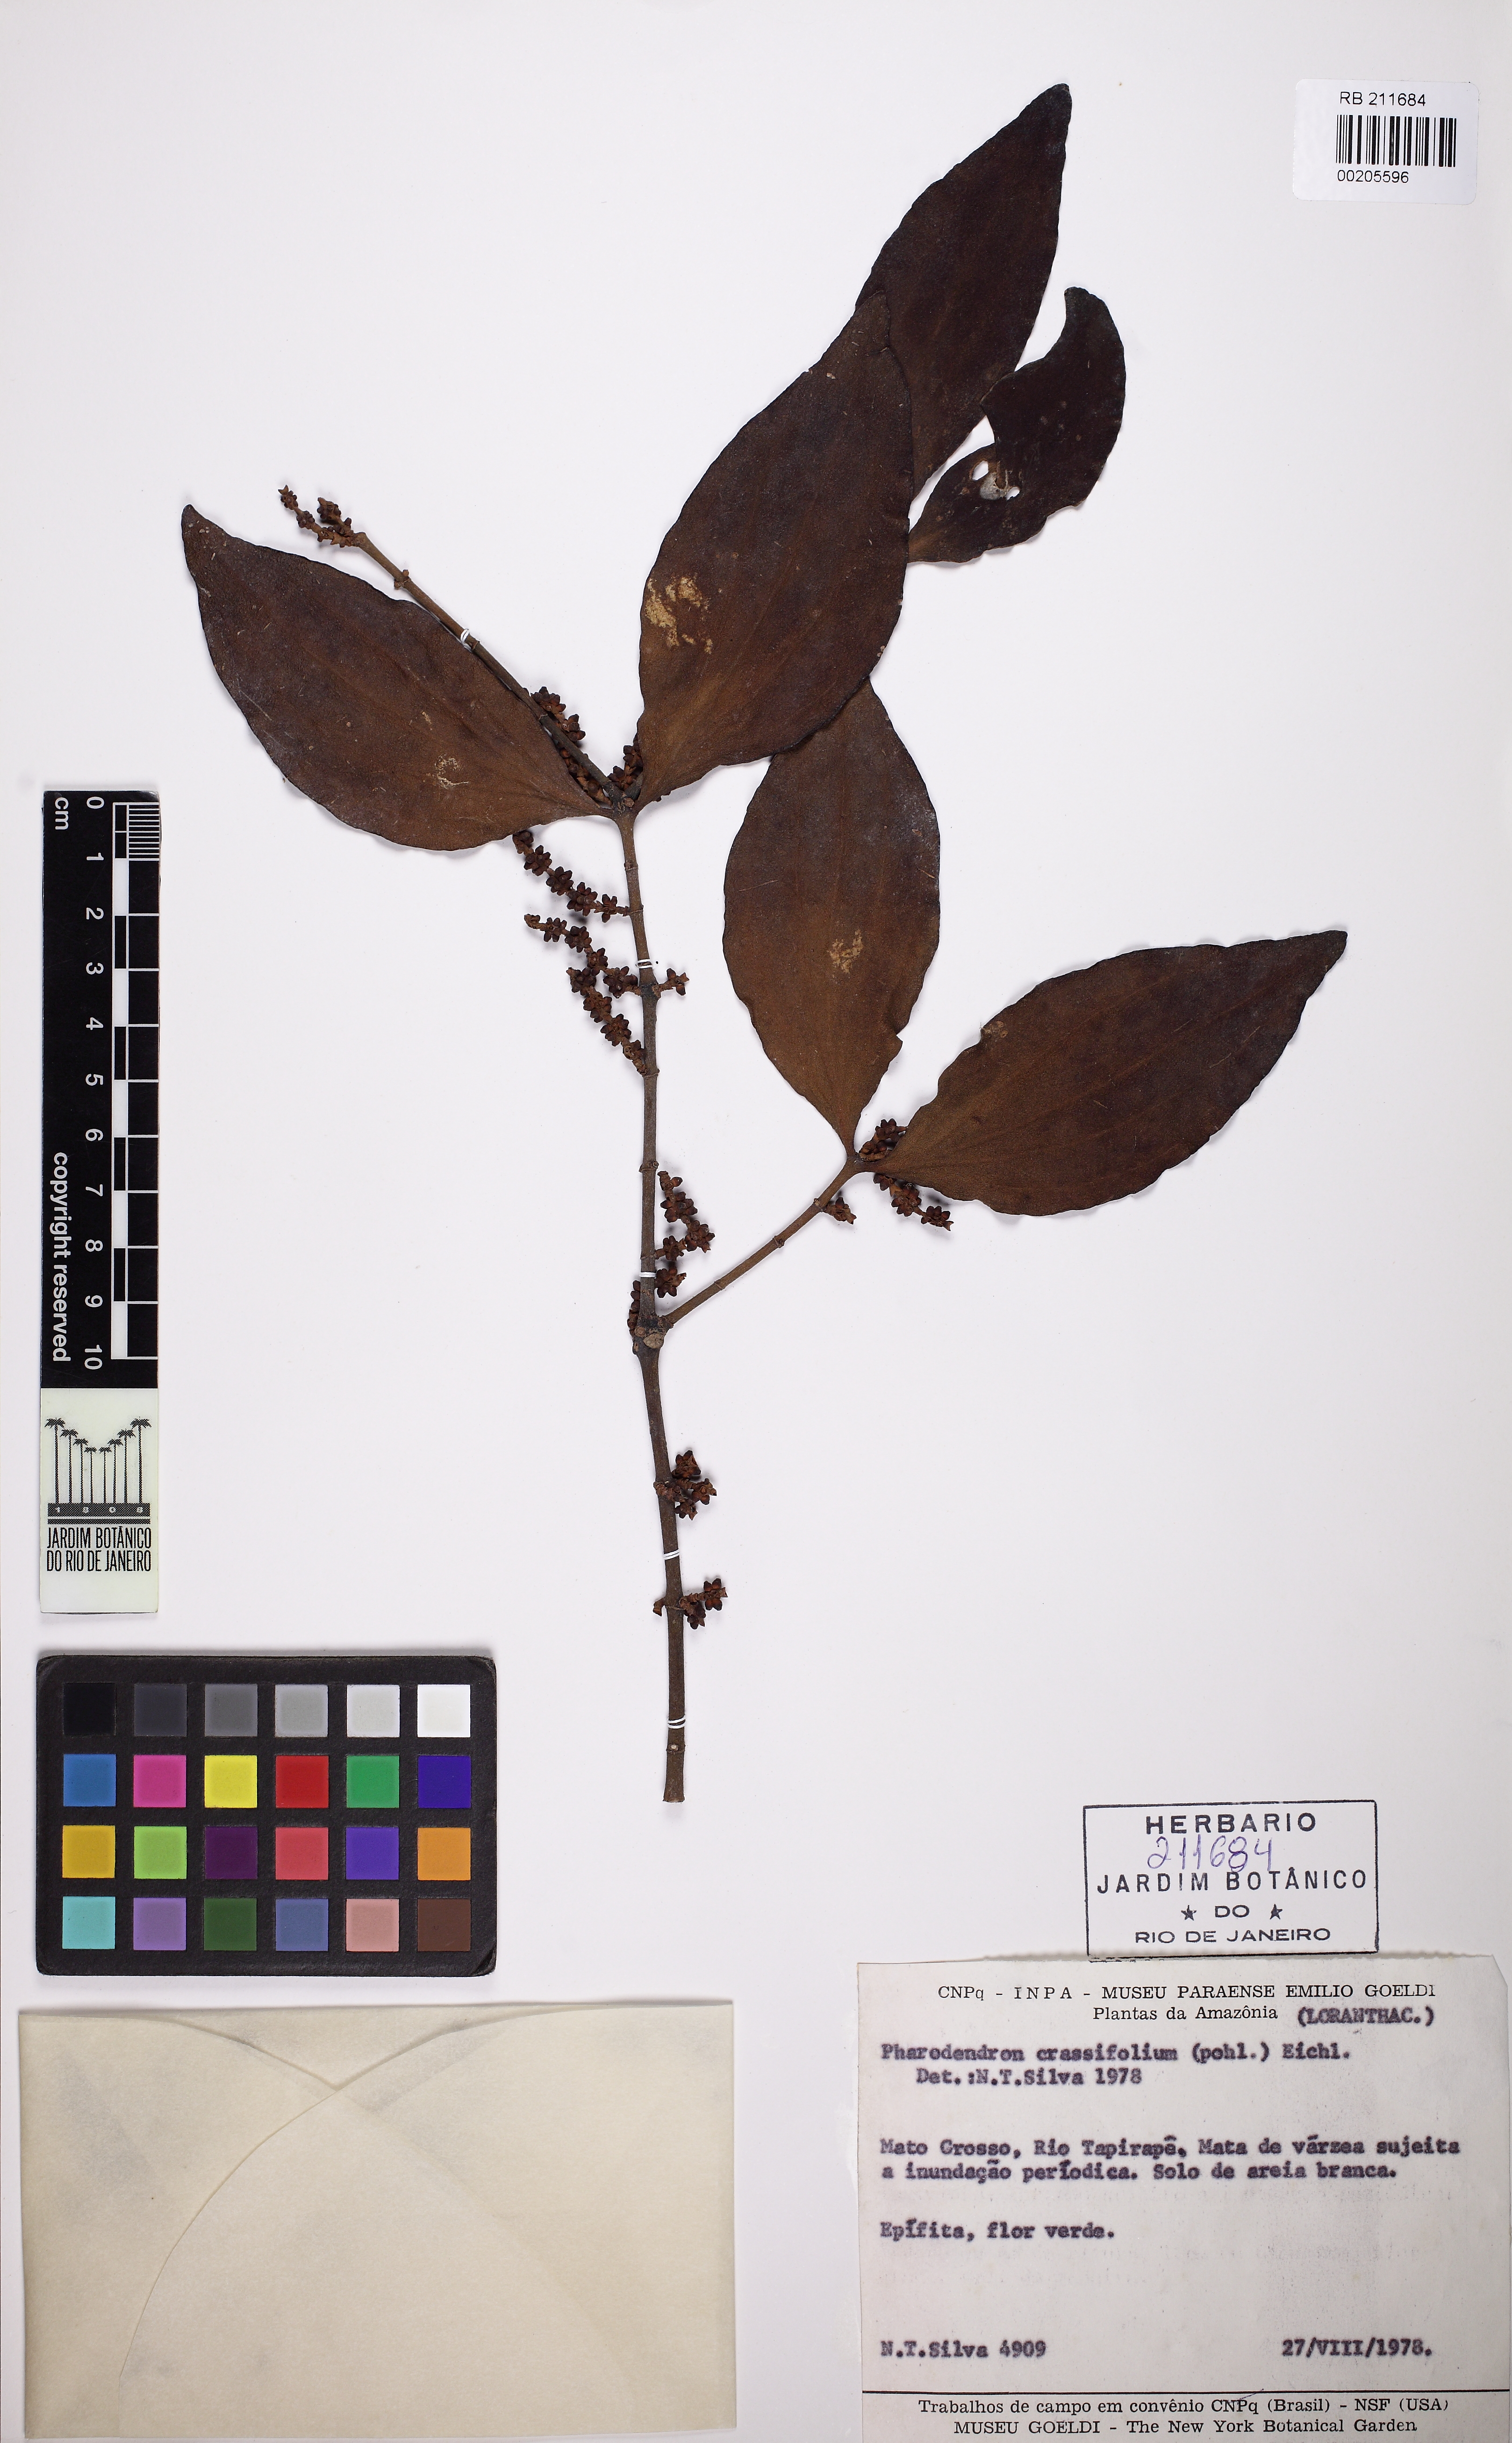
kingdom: Plantae
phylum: Tracheophyta
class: Magnoliopsida
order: Santalales
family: Viscaceae
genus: Phoradendron
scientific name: Phoradendron crassifolium
